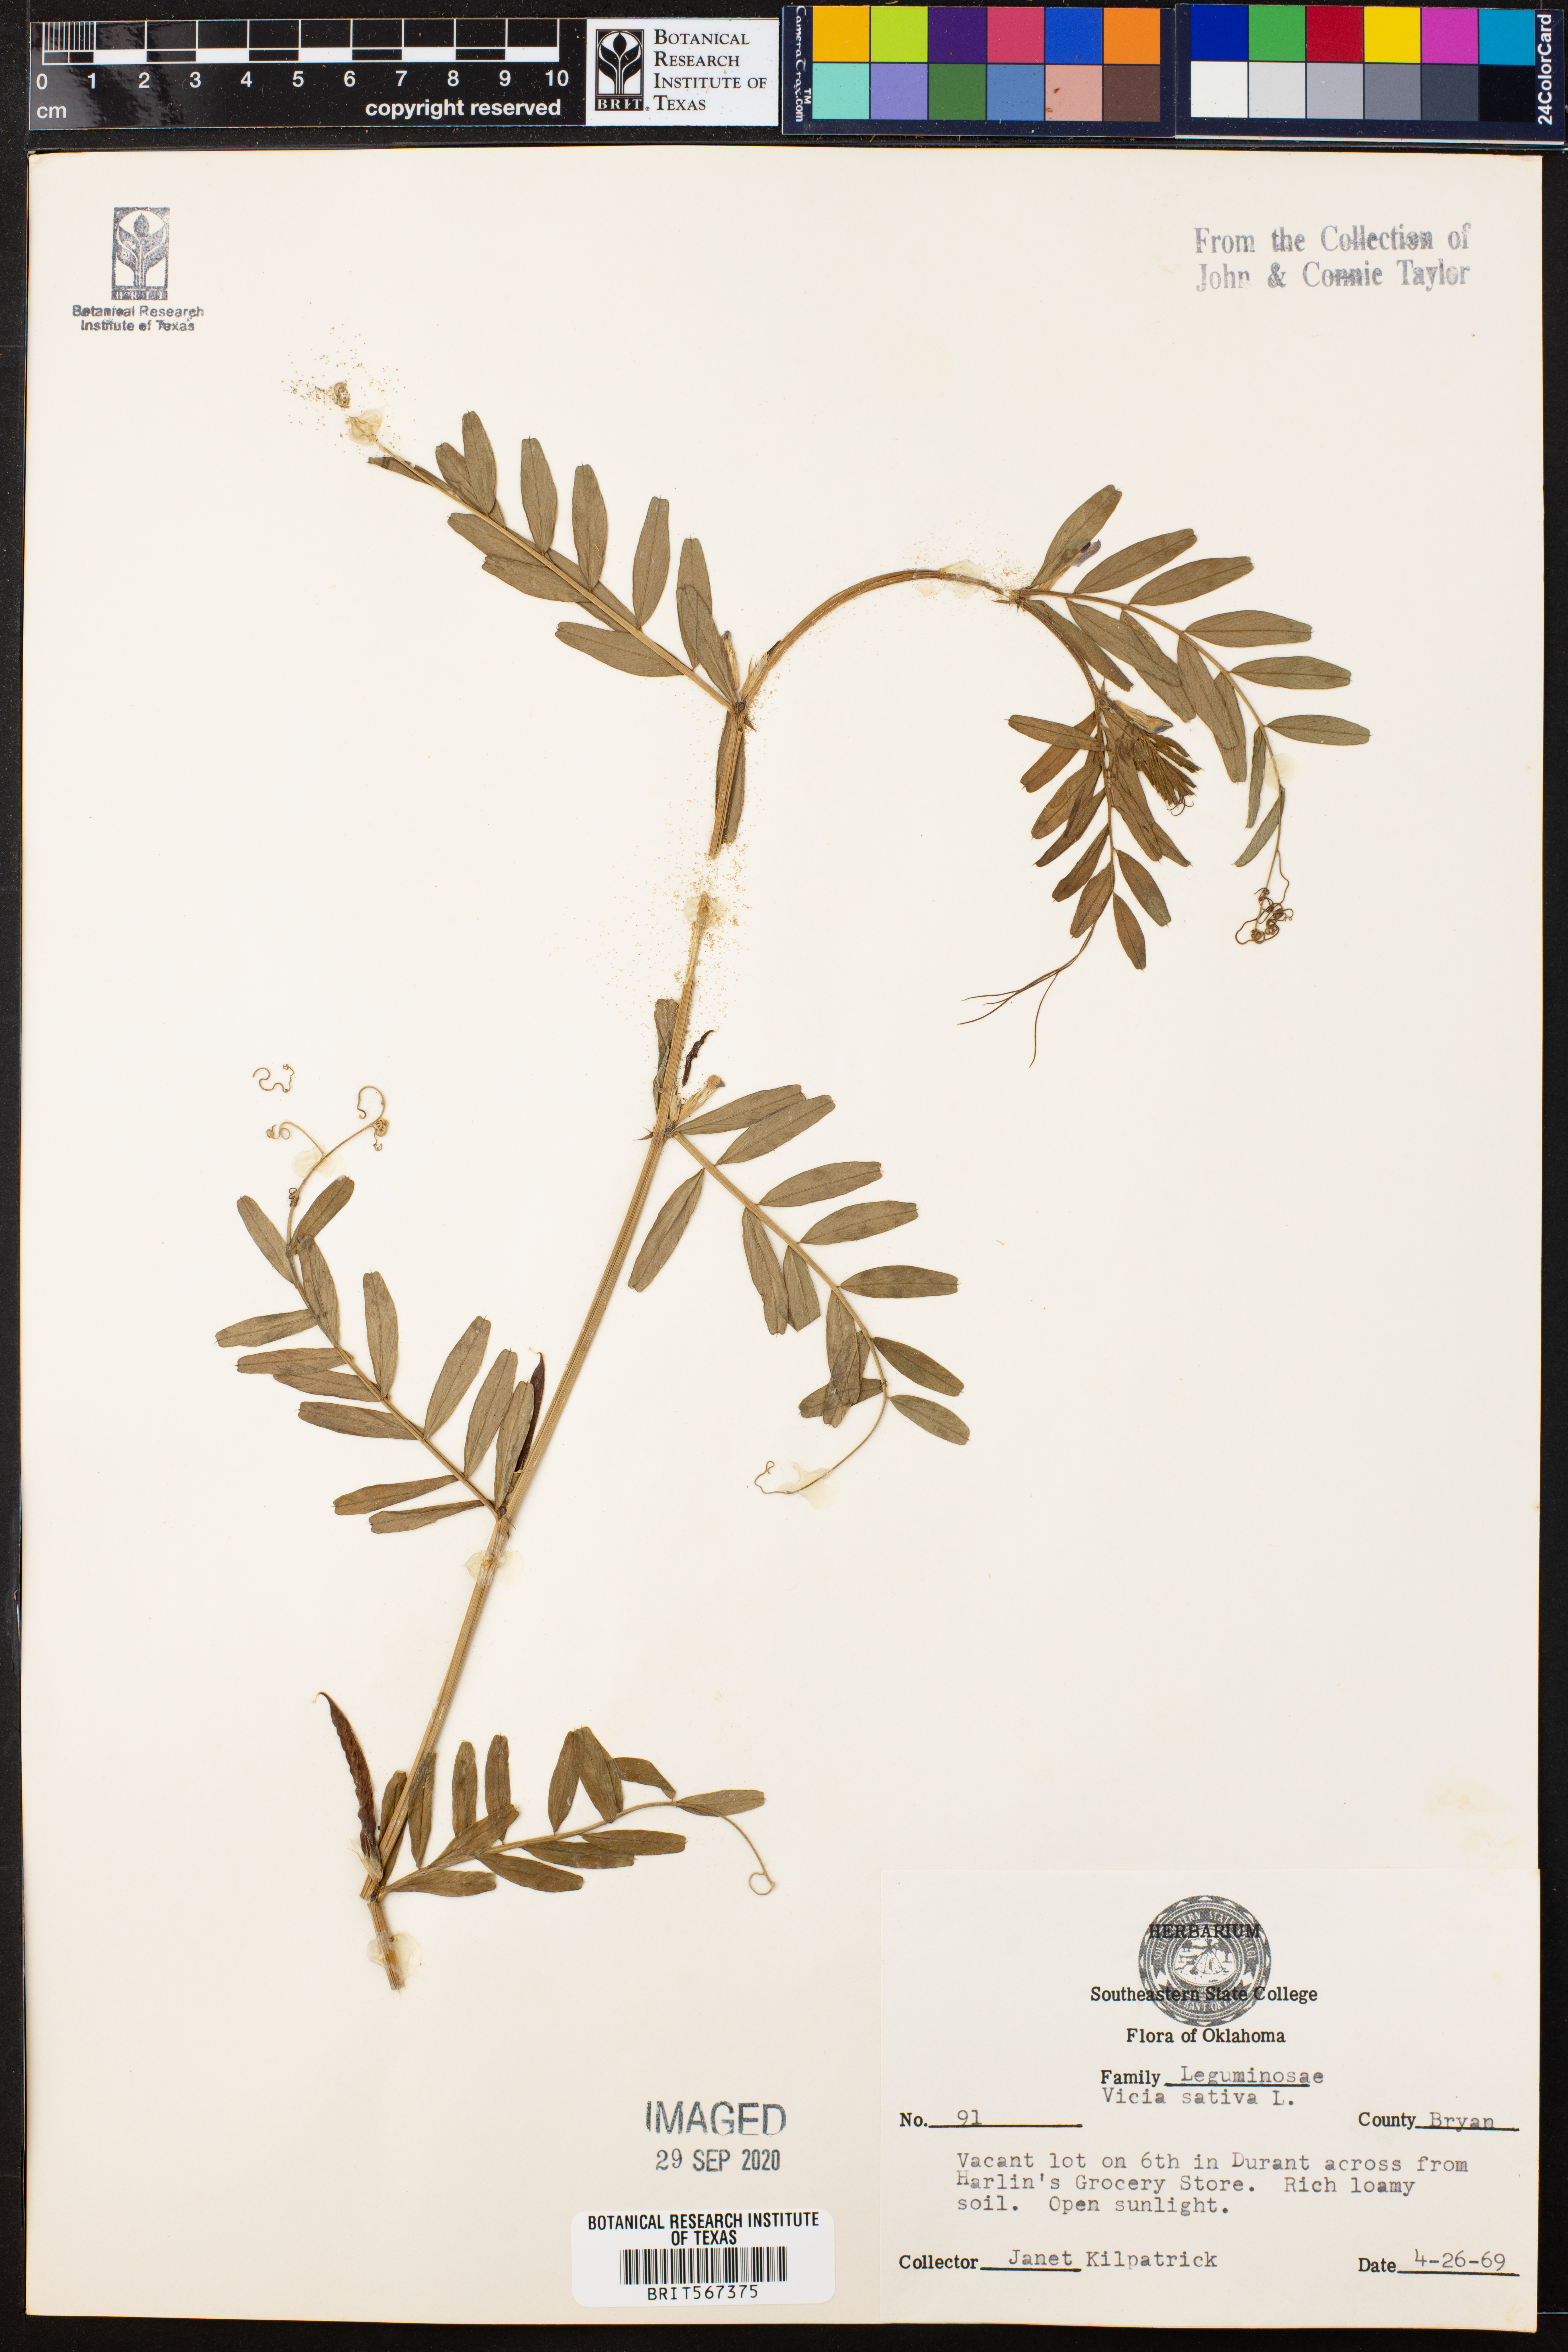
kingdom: Plantae
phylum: Tracheophyta
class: Magnoliopsida
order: Fabales
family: Fabaceae
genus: Vicia
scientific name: Vicia sativa
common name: Garden vetch
